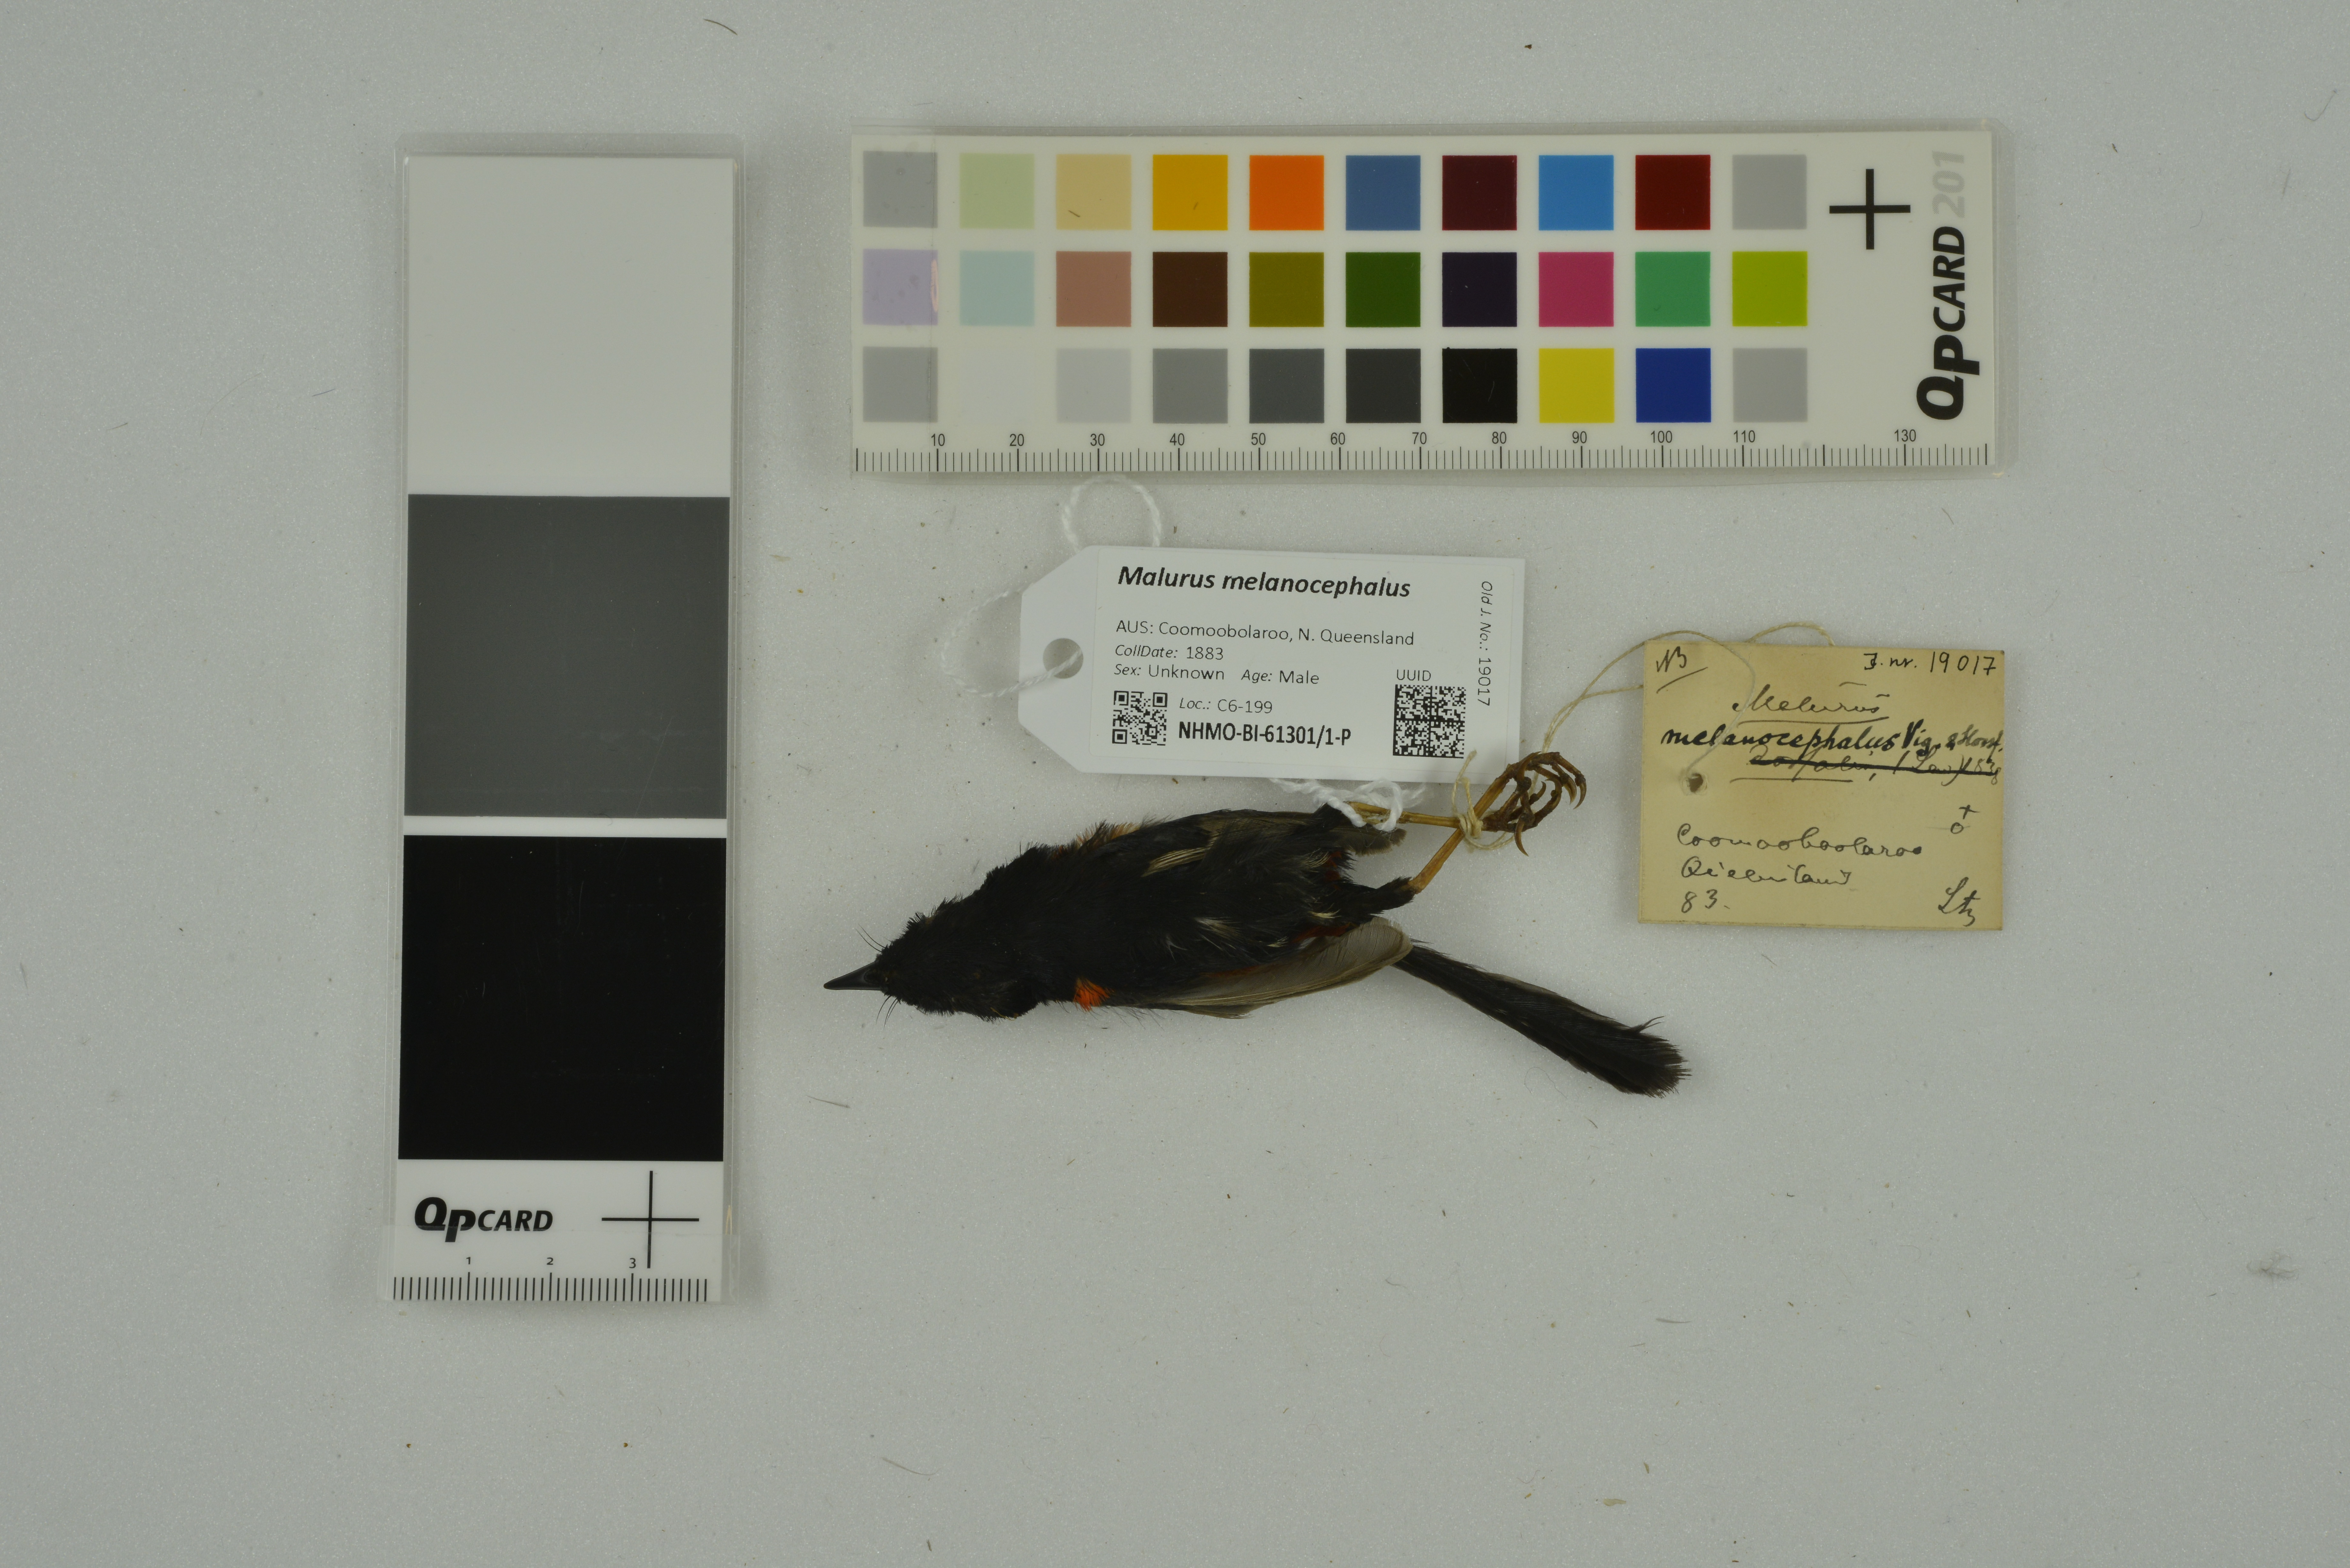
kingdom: Animalia
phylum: Chordata
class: Aves
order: Passeriformes
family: Maluridae
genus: Malurus
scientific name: Malurus melanocephalus
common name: Red-backed fairywren
